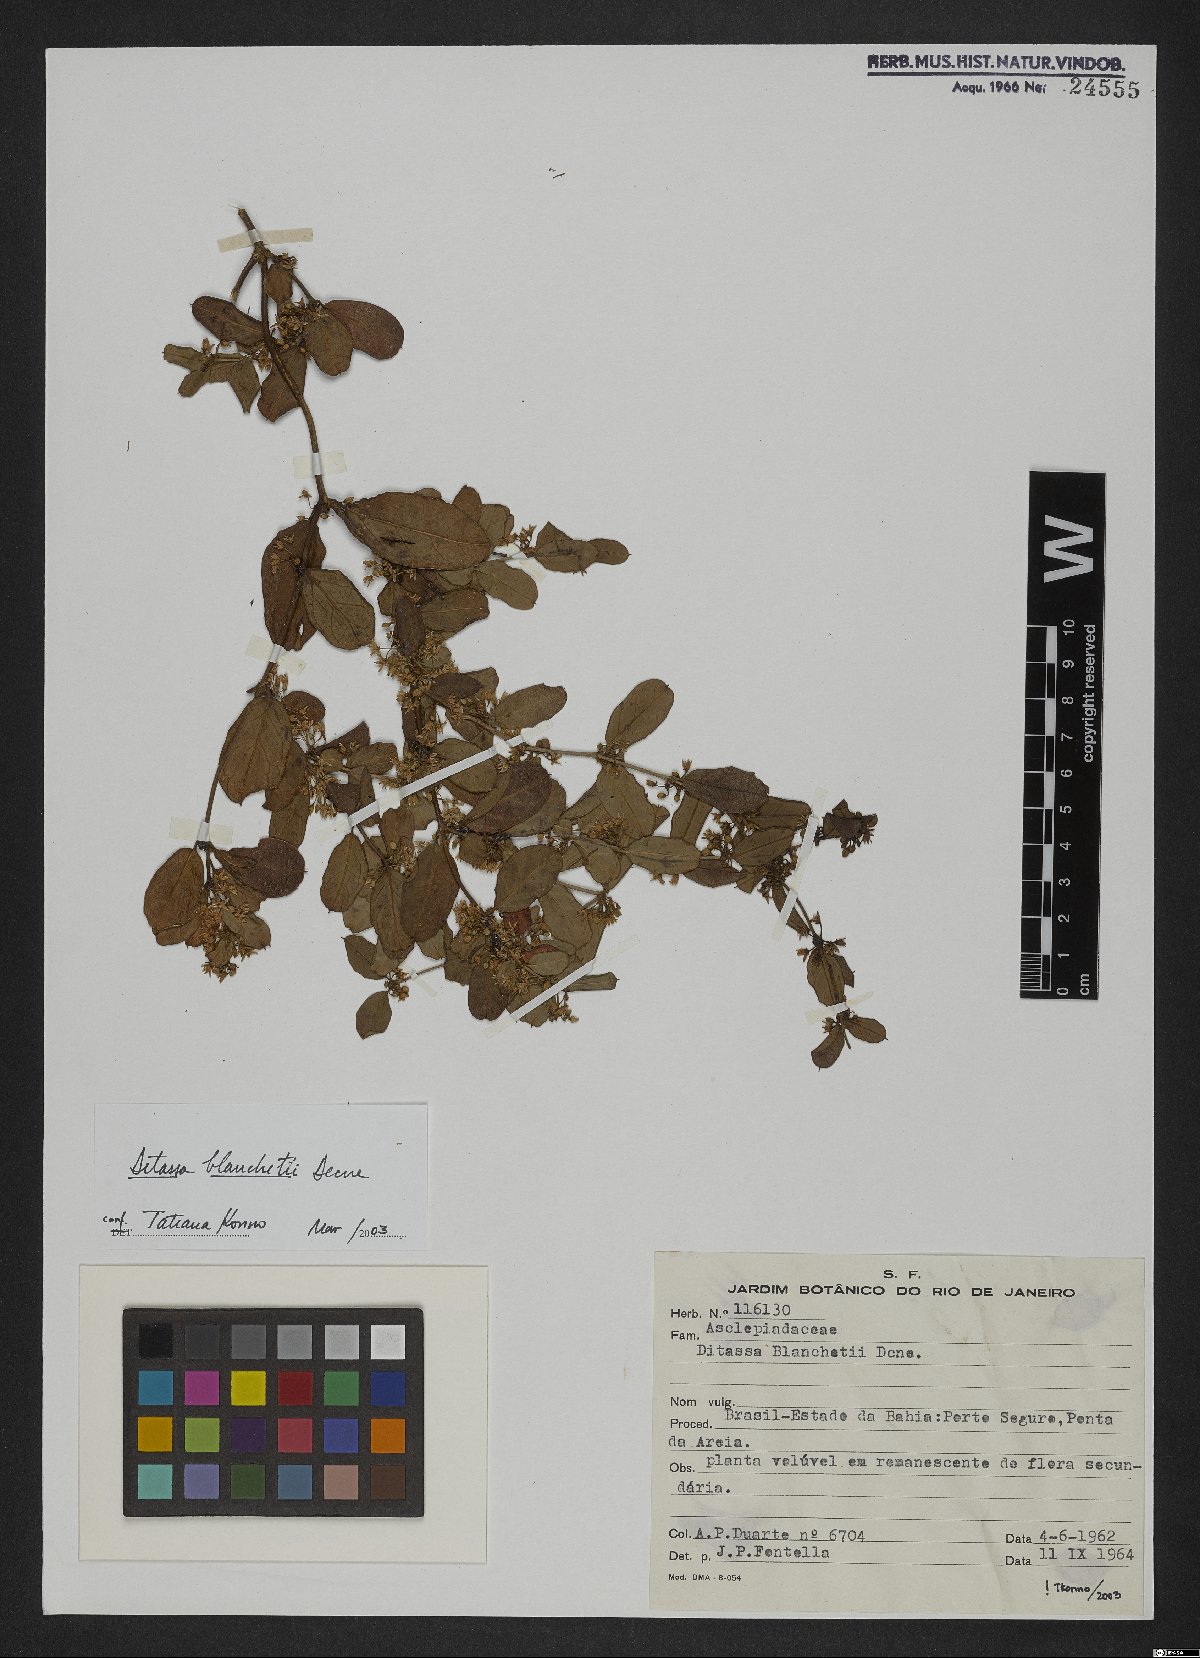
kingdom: Plantae
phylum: Tracheophyta
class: Magnoliopsida
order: Gentianales
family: Apocynaceae
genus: Ditassa
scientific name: Ditassa blanchetii
